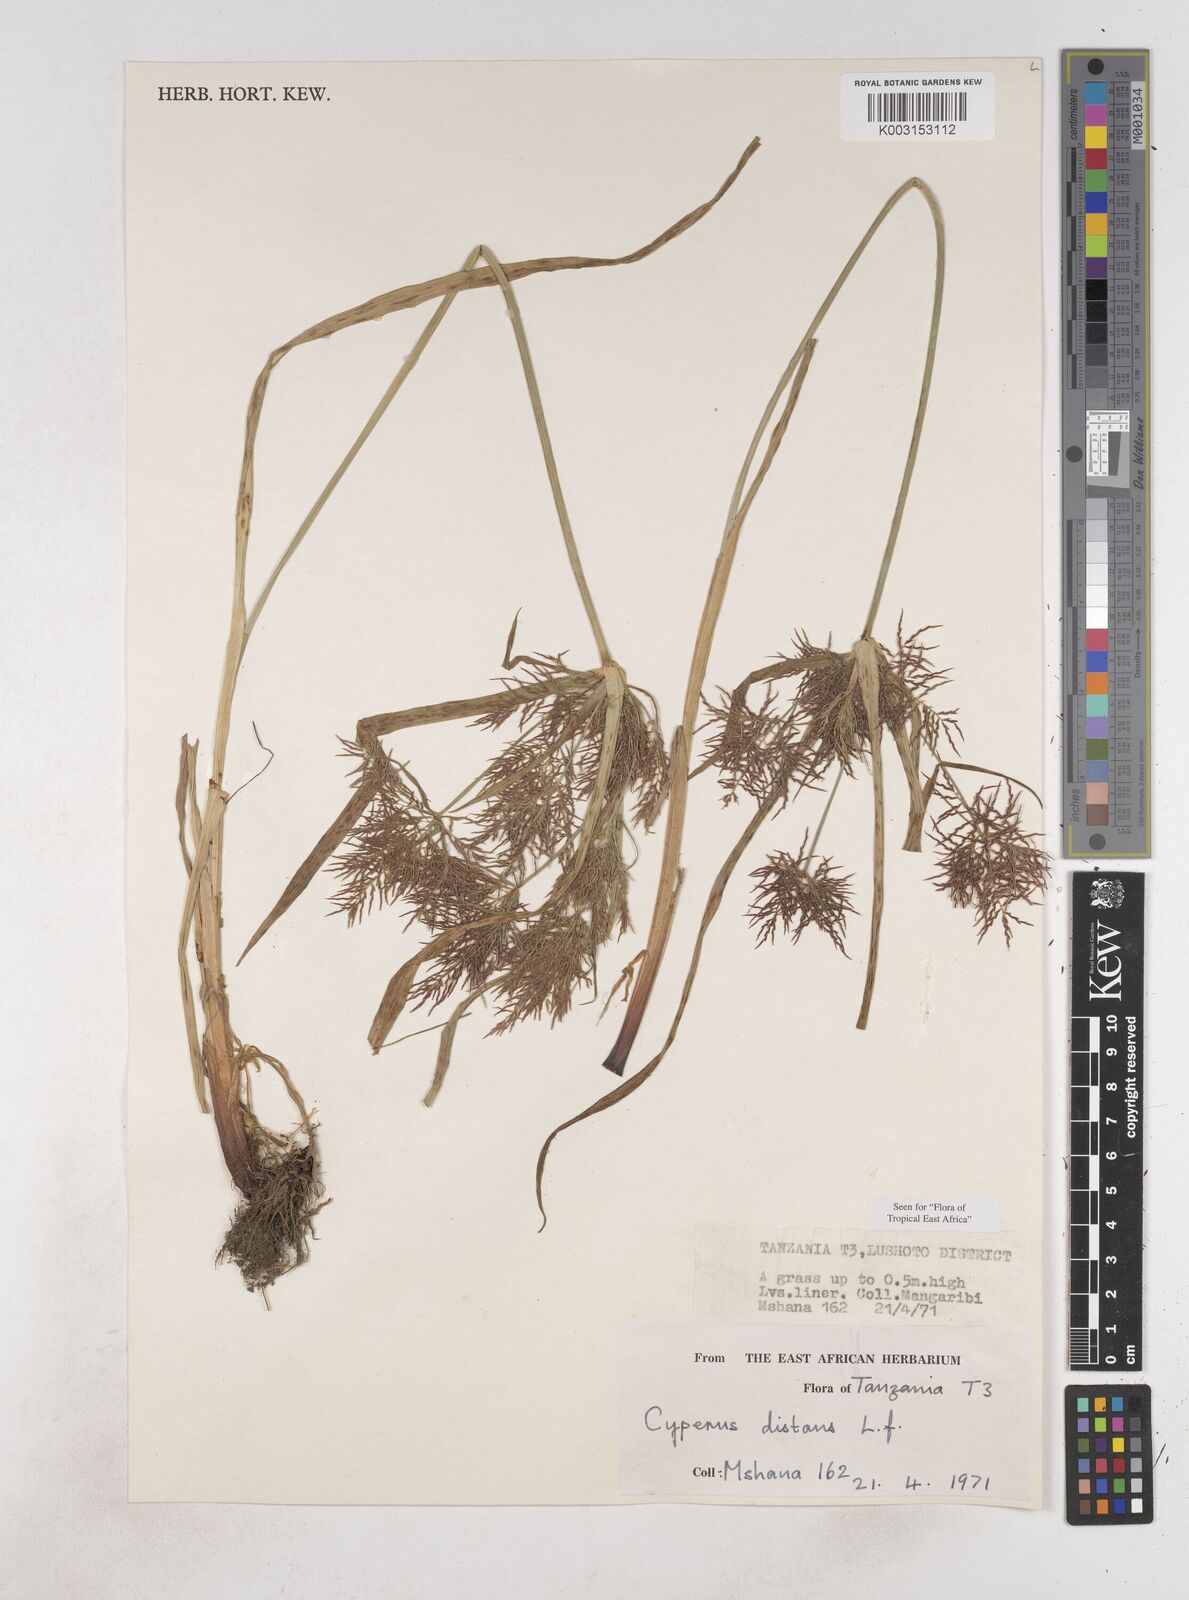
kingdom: Plantae
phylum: Tracheophyta
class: Liliopsida
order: Poales
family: Cyperaceae
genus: Cyperus
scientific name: Cyperus distans
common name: Slender cyperus
